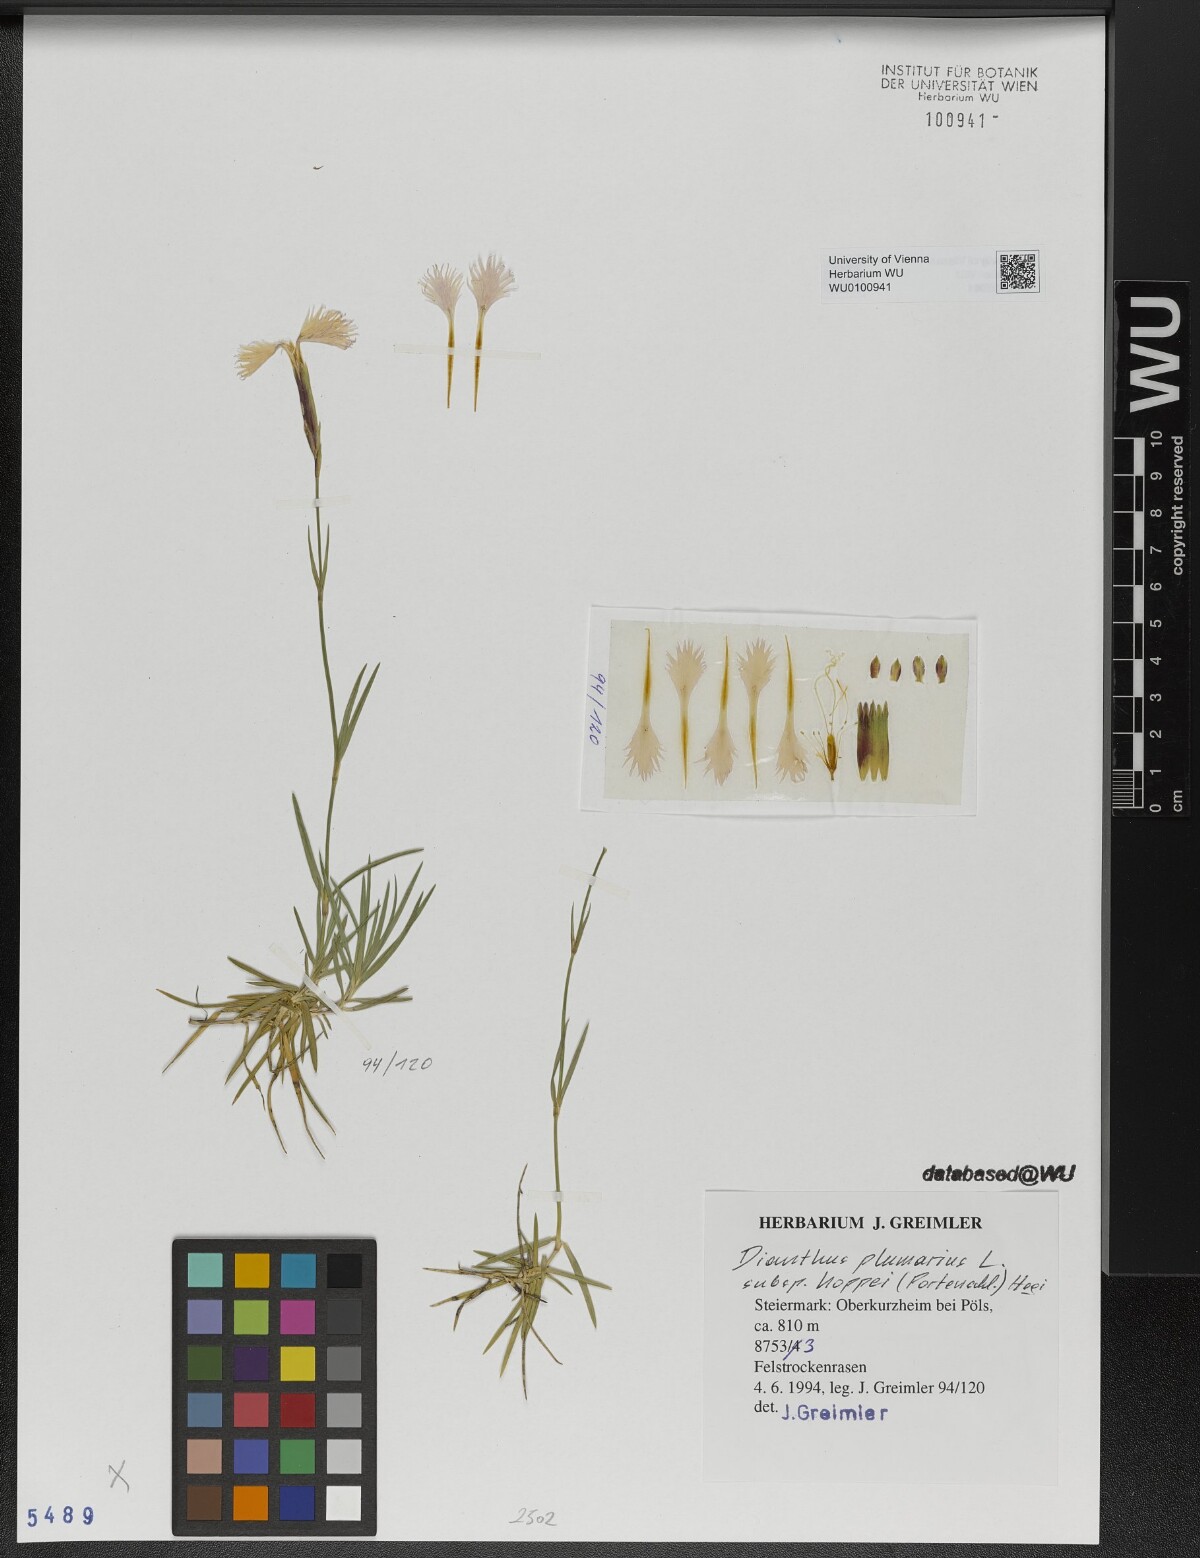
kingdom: Plantae
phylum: Tracheophyta
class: Magnoliopsida
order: Caryophyllales
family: Caryophyllaceae
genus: Dianthus
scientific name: Dianthus plumarius
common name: Pink
